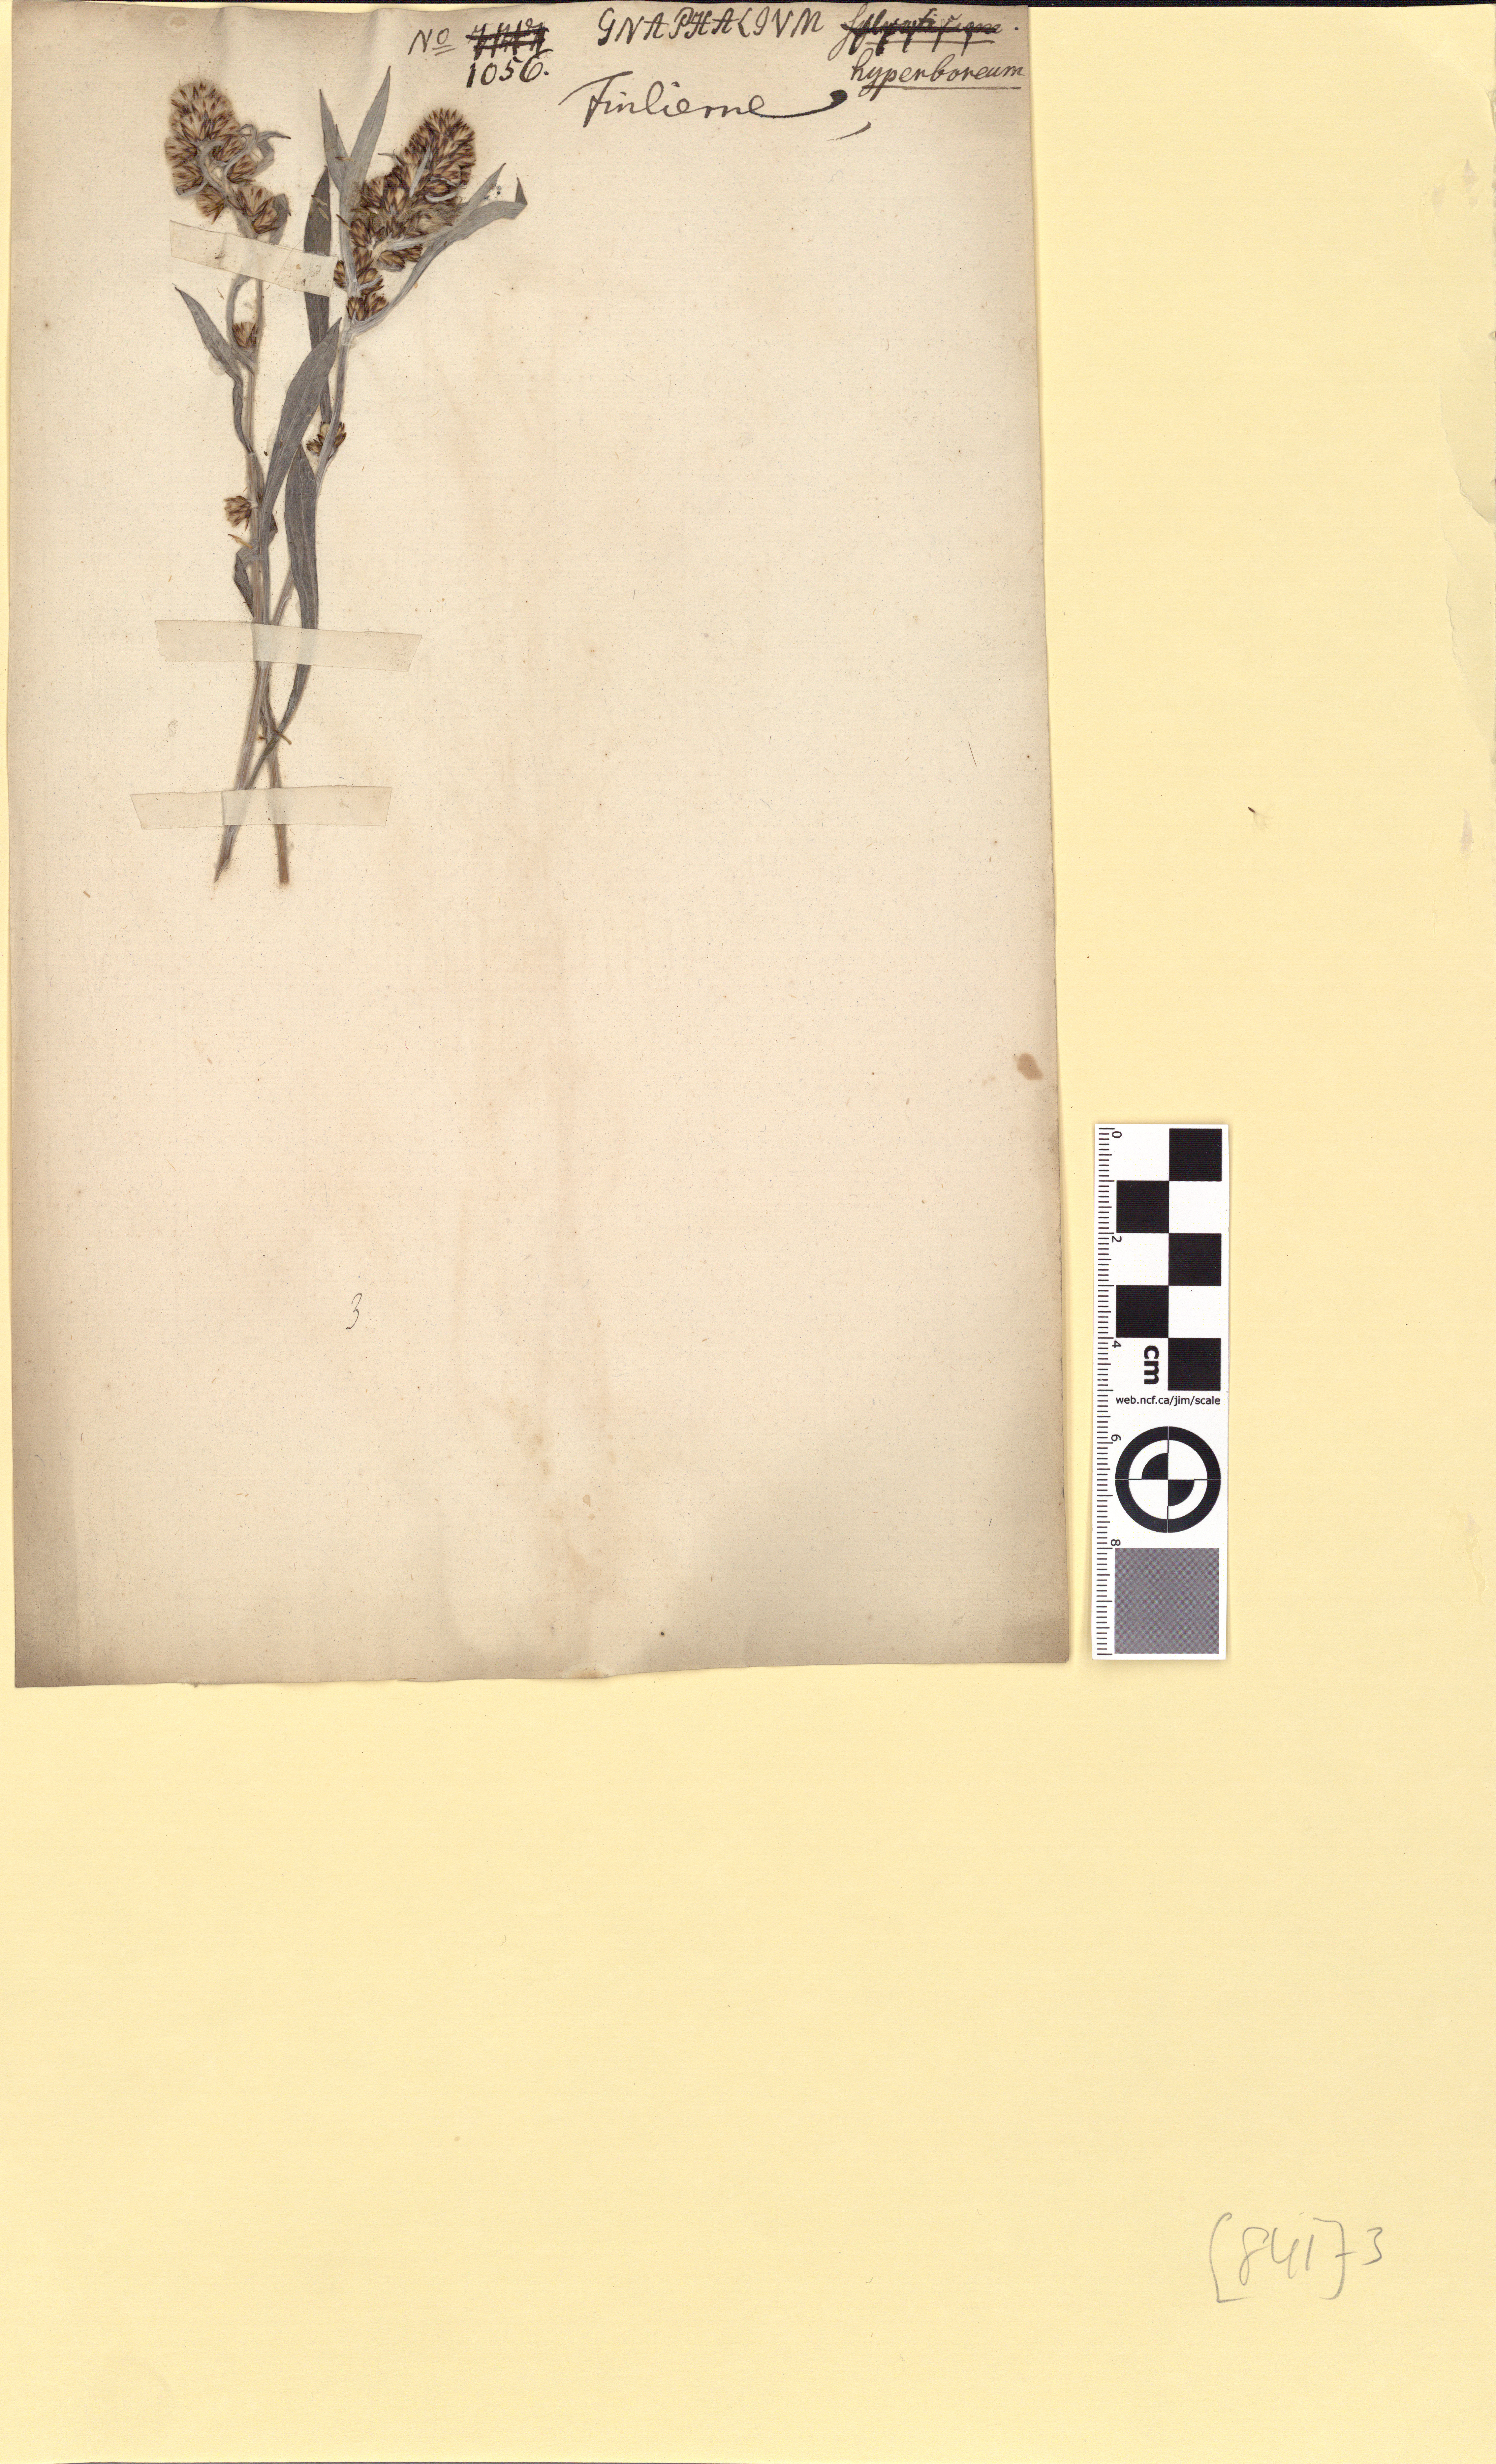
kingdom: Plantae
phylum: Tracheophyta
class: Magnoliopsida
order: Asterales
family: Asteraceae
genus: Omalotheca
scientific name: Omalotheca norvegica
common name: Norwegian arctic-cudweed
